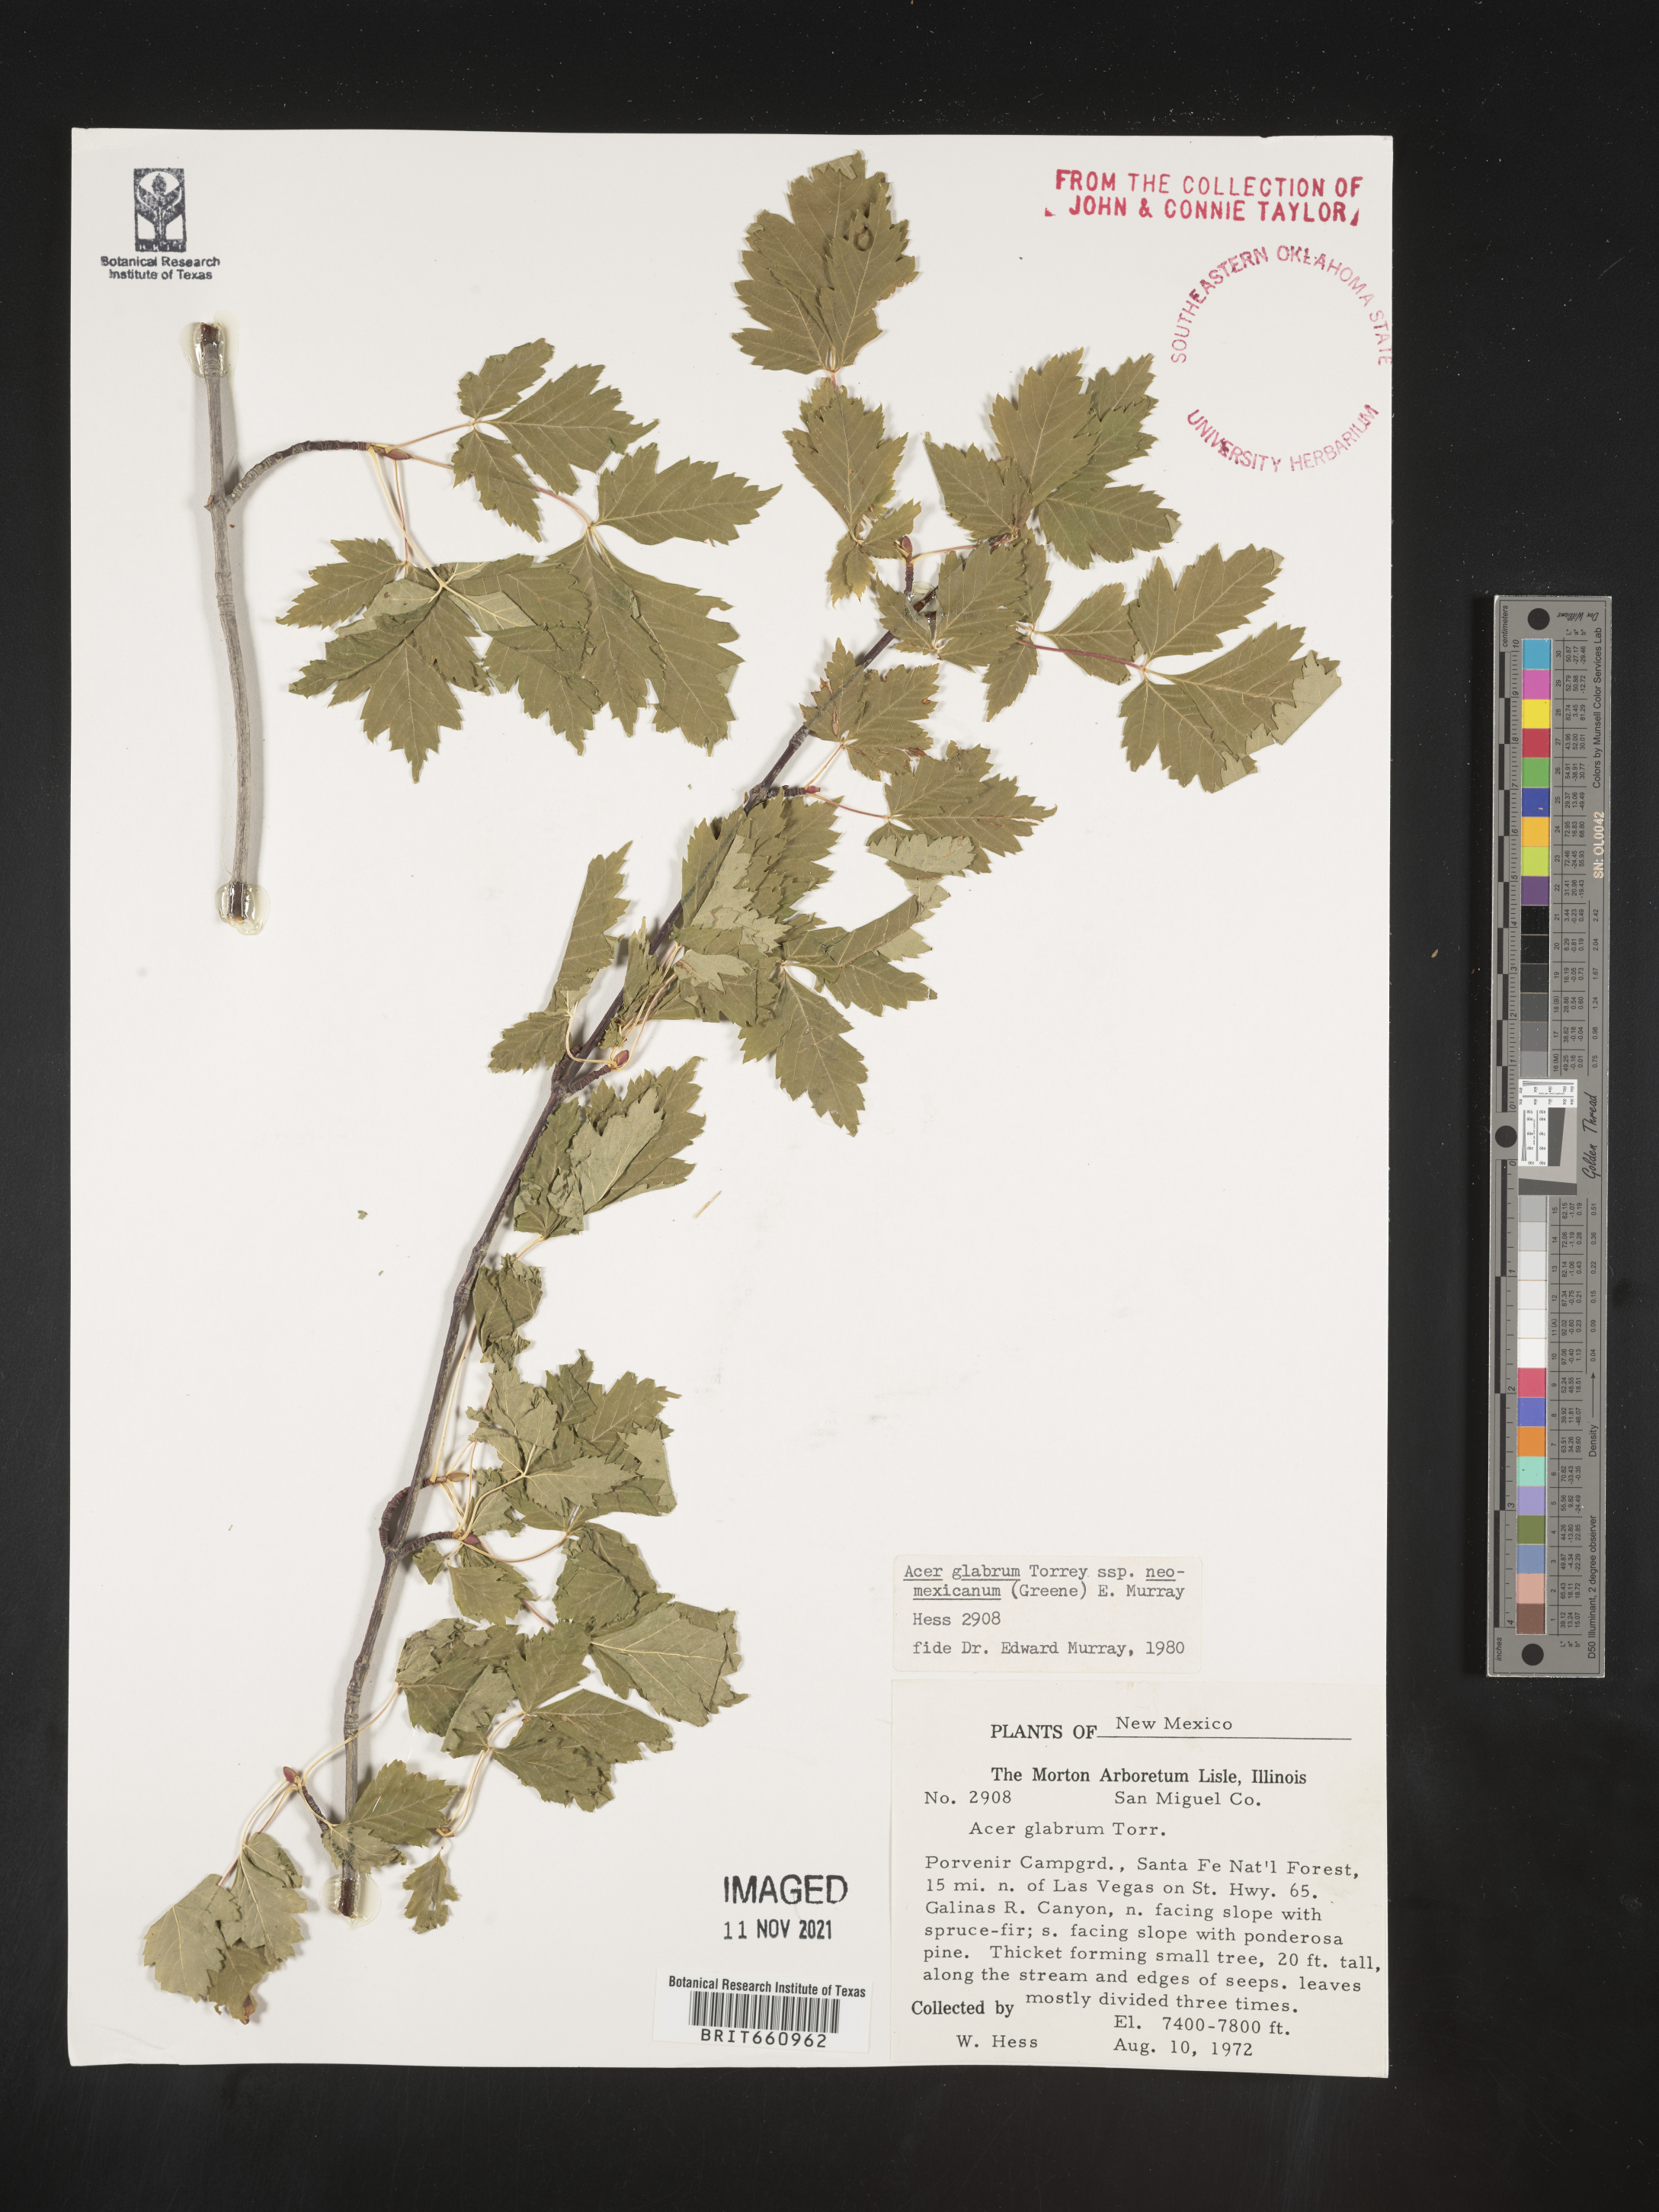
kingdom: Plantae
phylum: Tracheophyta
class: Magnoliopsida
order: Sapindales
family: Sapindaceae
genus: Acer
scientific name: Acer glabrum
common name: Rocky mountain maple
